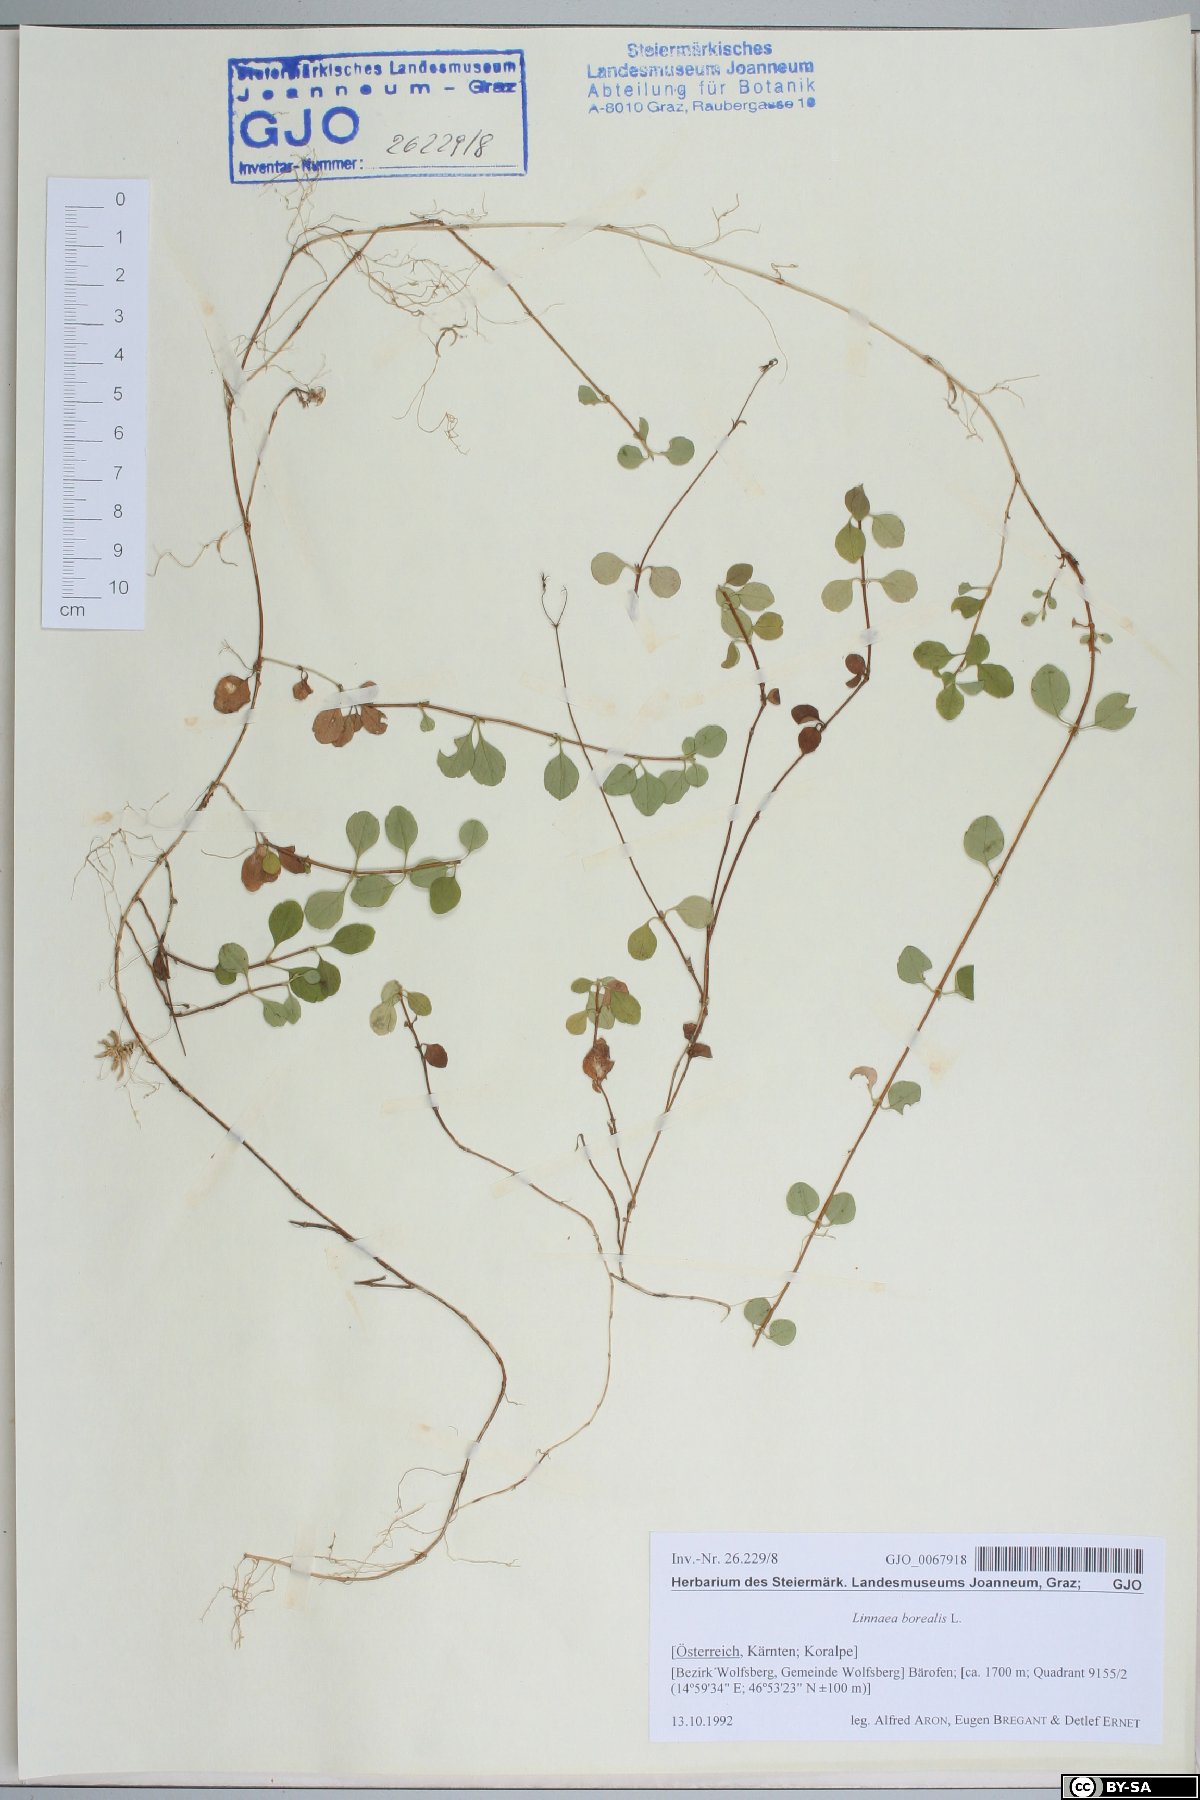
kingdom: Plantae
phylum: Tracheophyta
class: Magnoliopsida
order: Dipsacales
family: Caprifoliaceae
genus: Linnaea
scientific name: Linnaea borealis
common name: Twinflower
